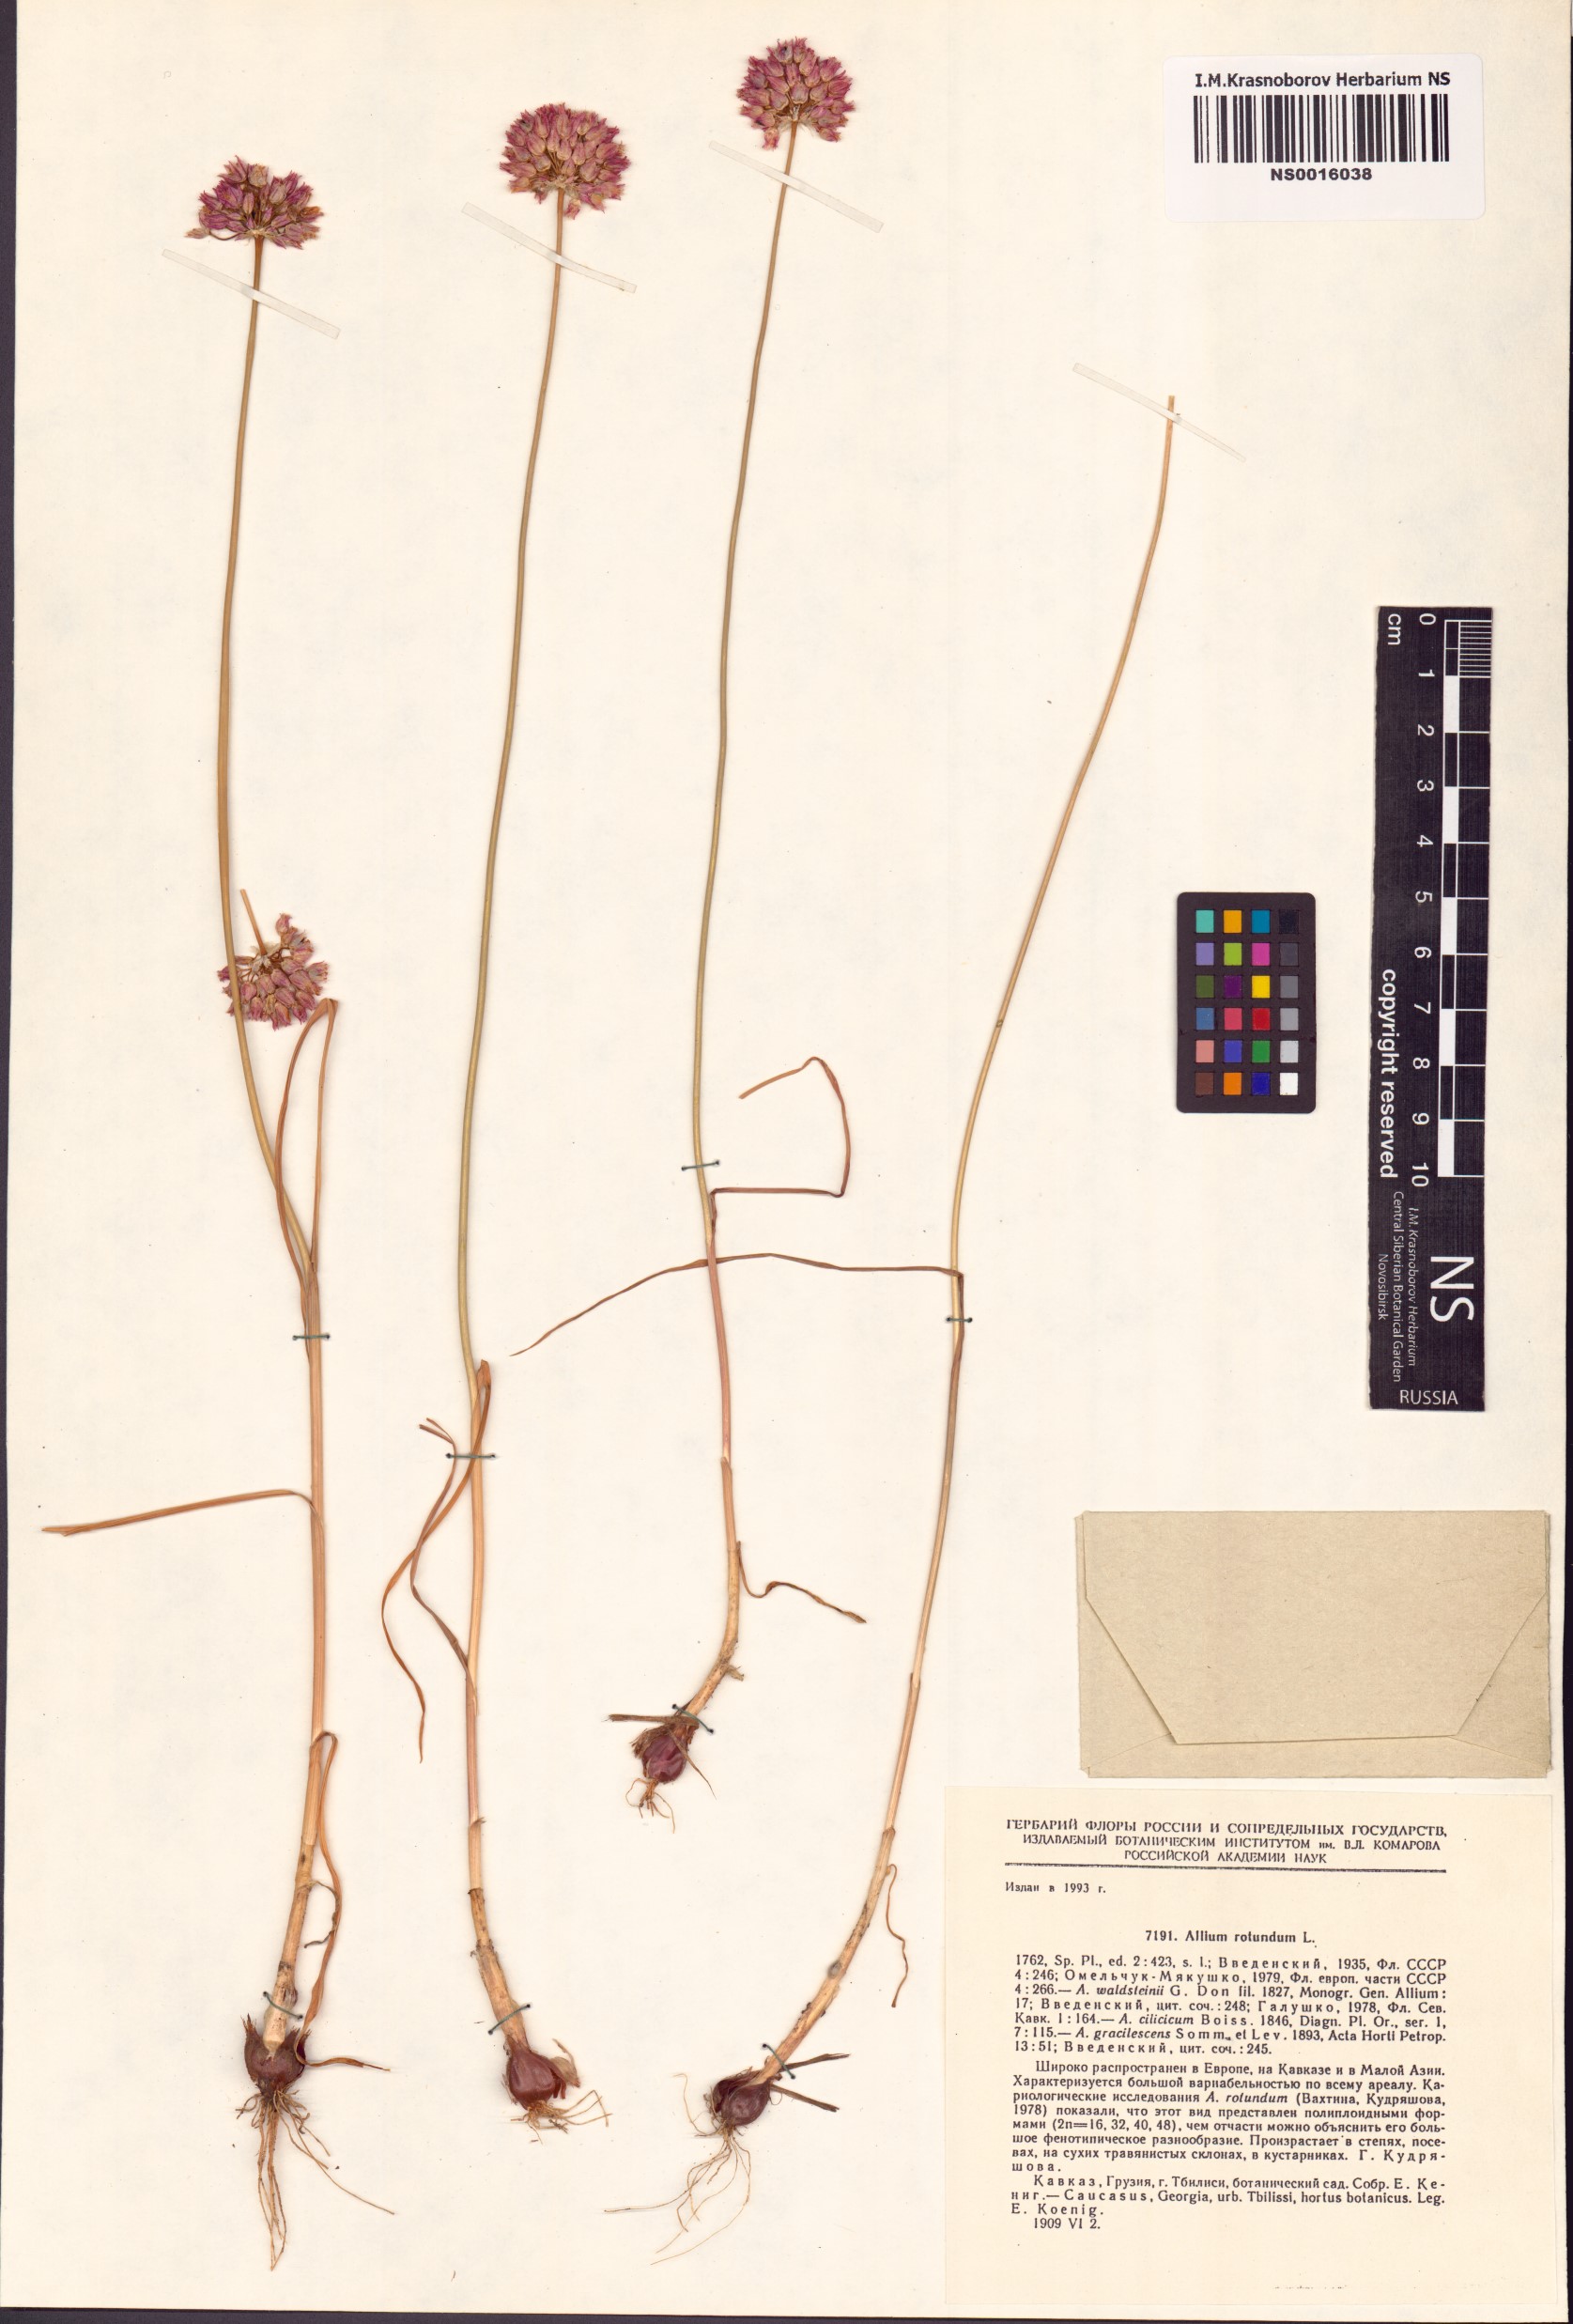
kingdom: Plantae
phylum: Tracheophyta
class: Liliopsida
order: Asparagales
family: Amaryllidaceae
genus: Allium
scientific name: Allium rotundum
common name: Sand leek
